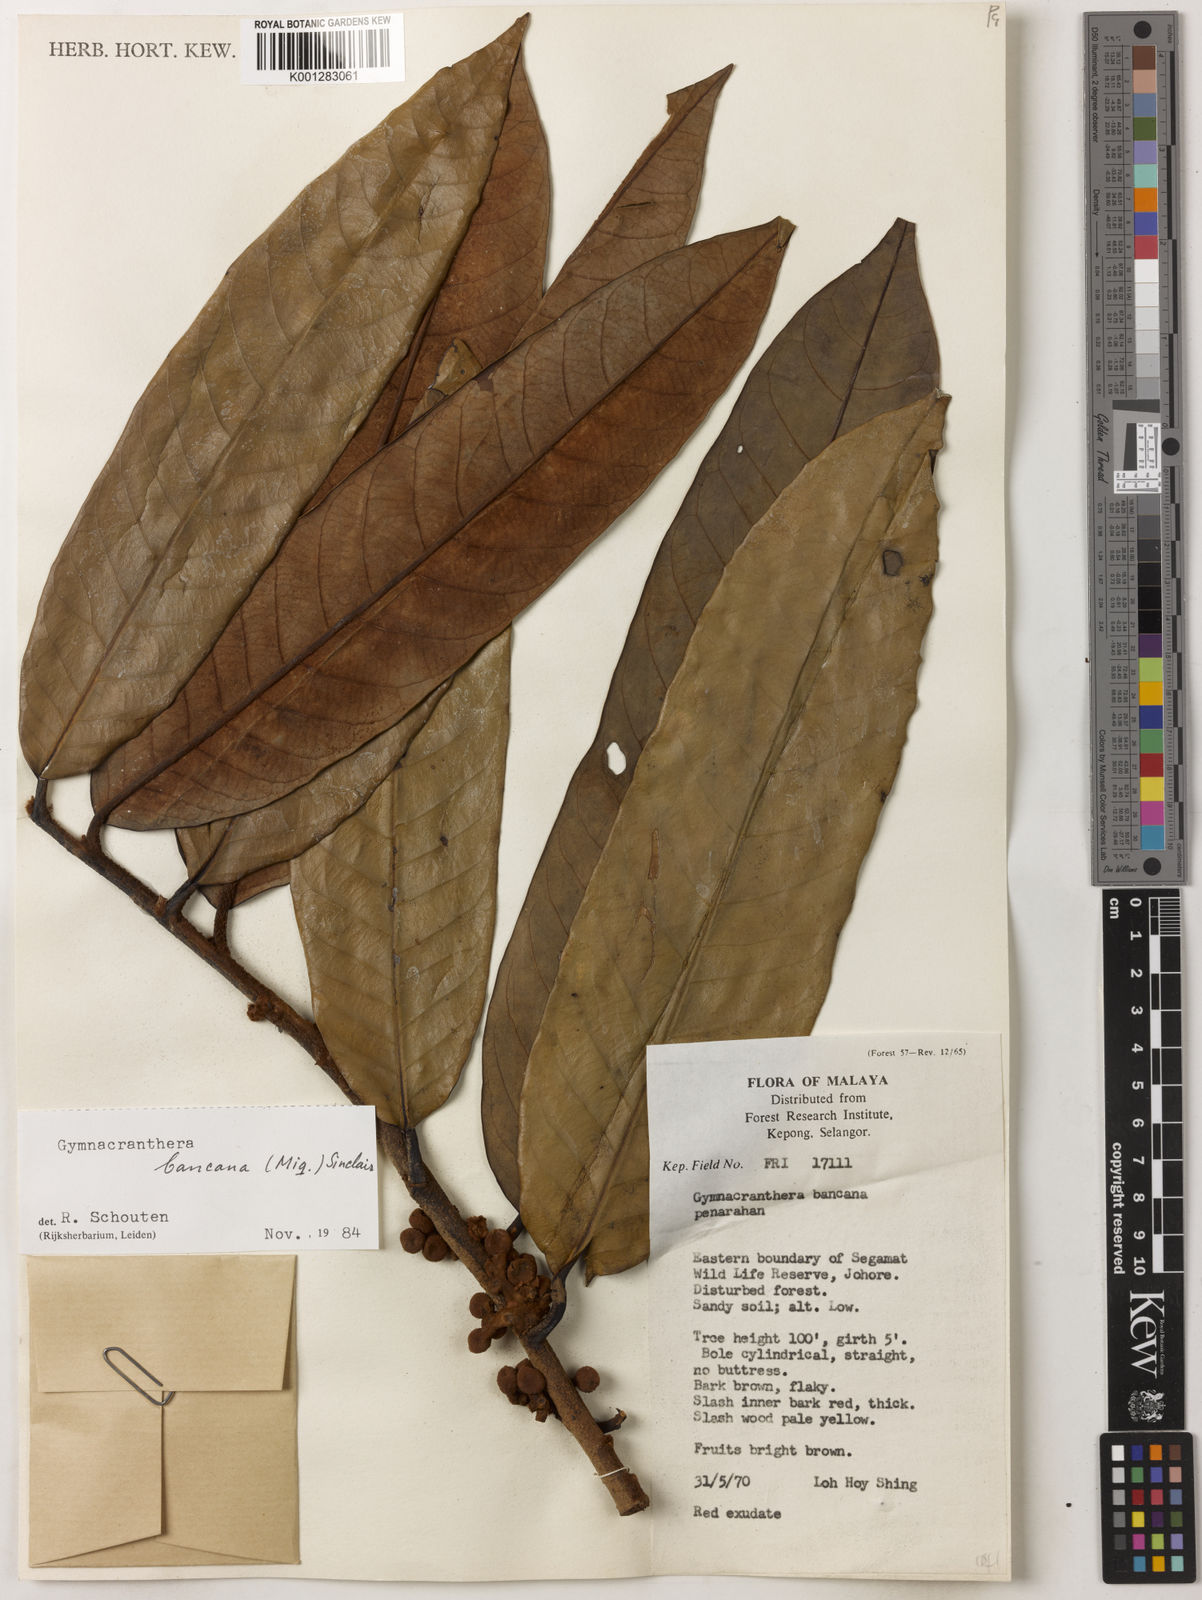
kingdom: Plantae
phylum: Tracheophyta
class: Magnoliopsida
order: Magnoliales
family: Myristicaceae
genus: Gymnacranthera
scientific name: Gymnacranthera bancana
